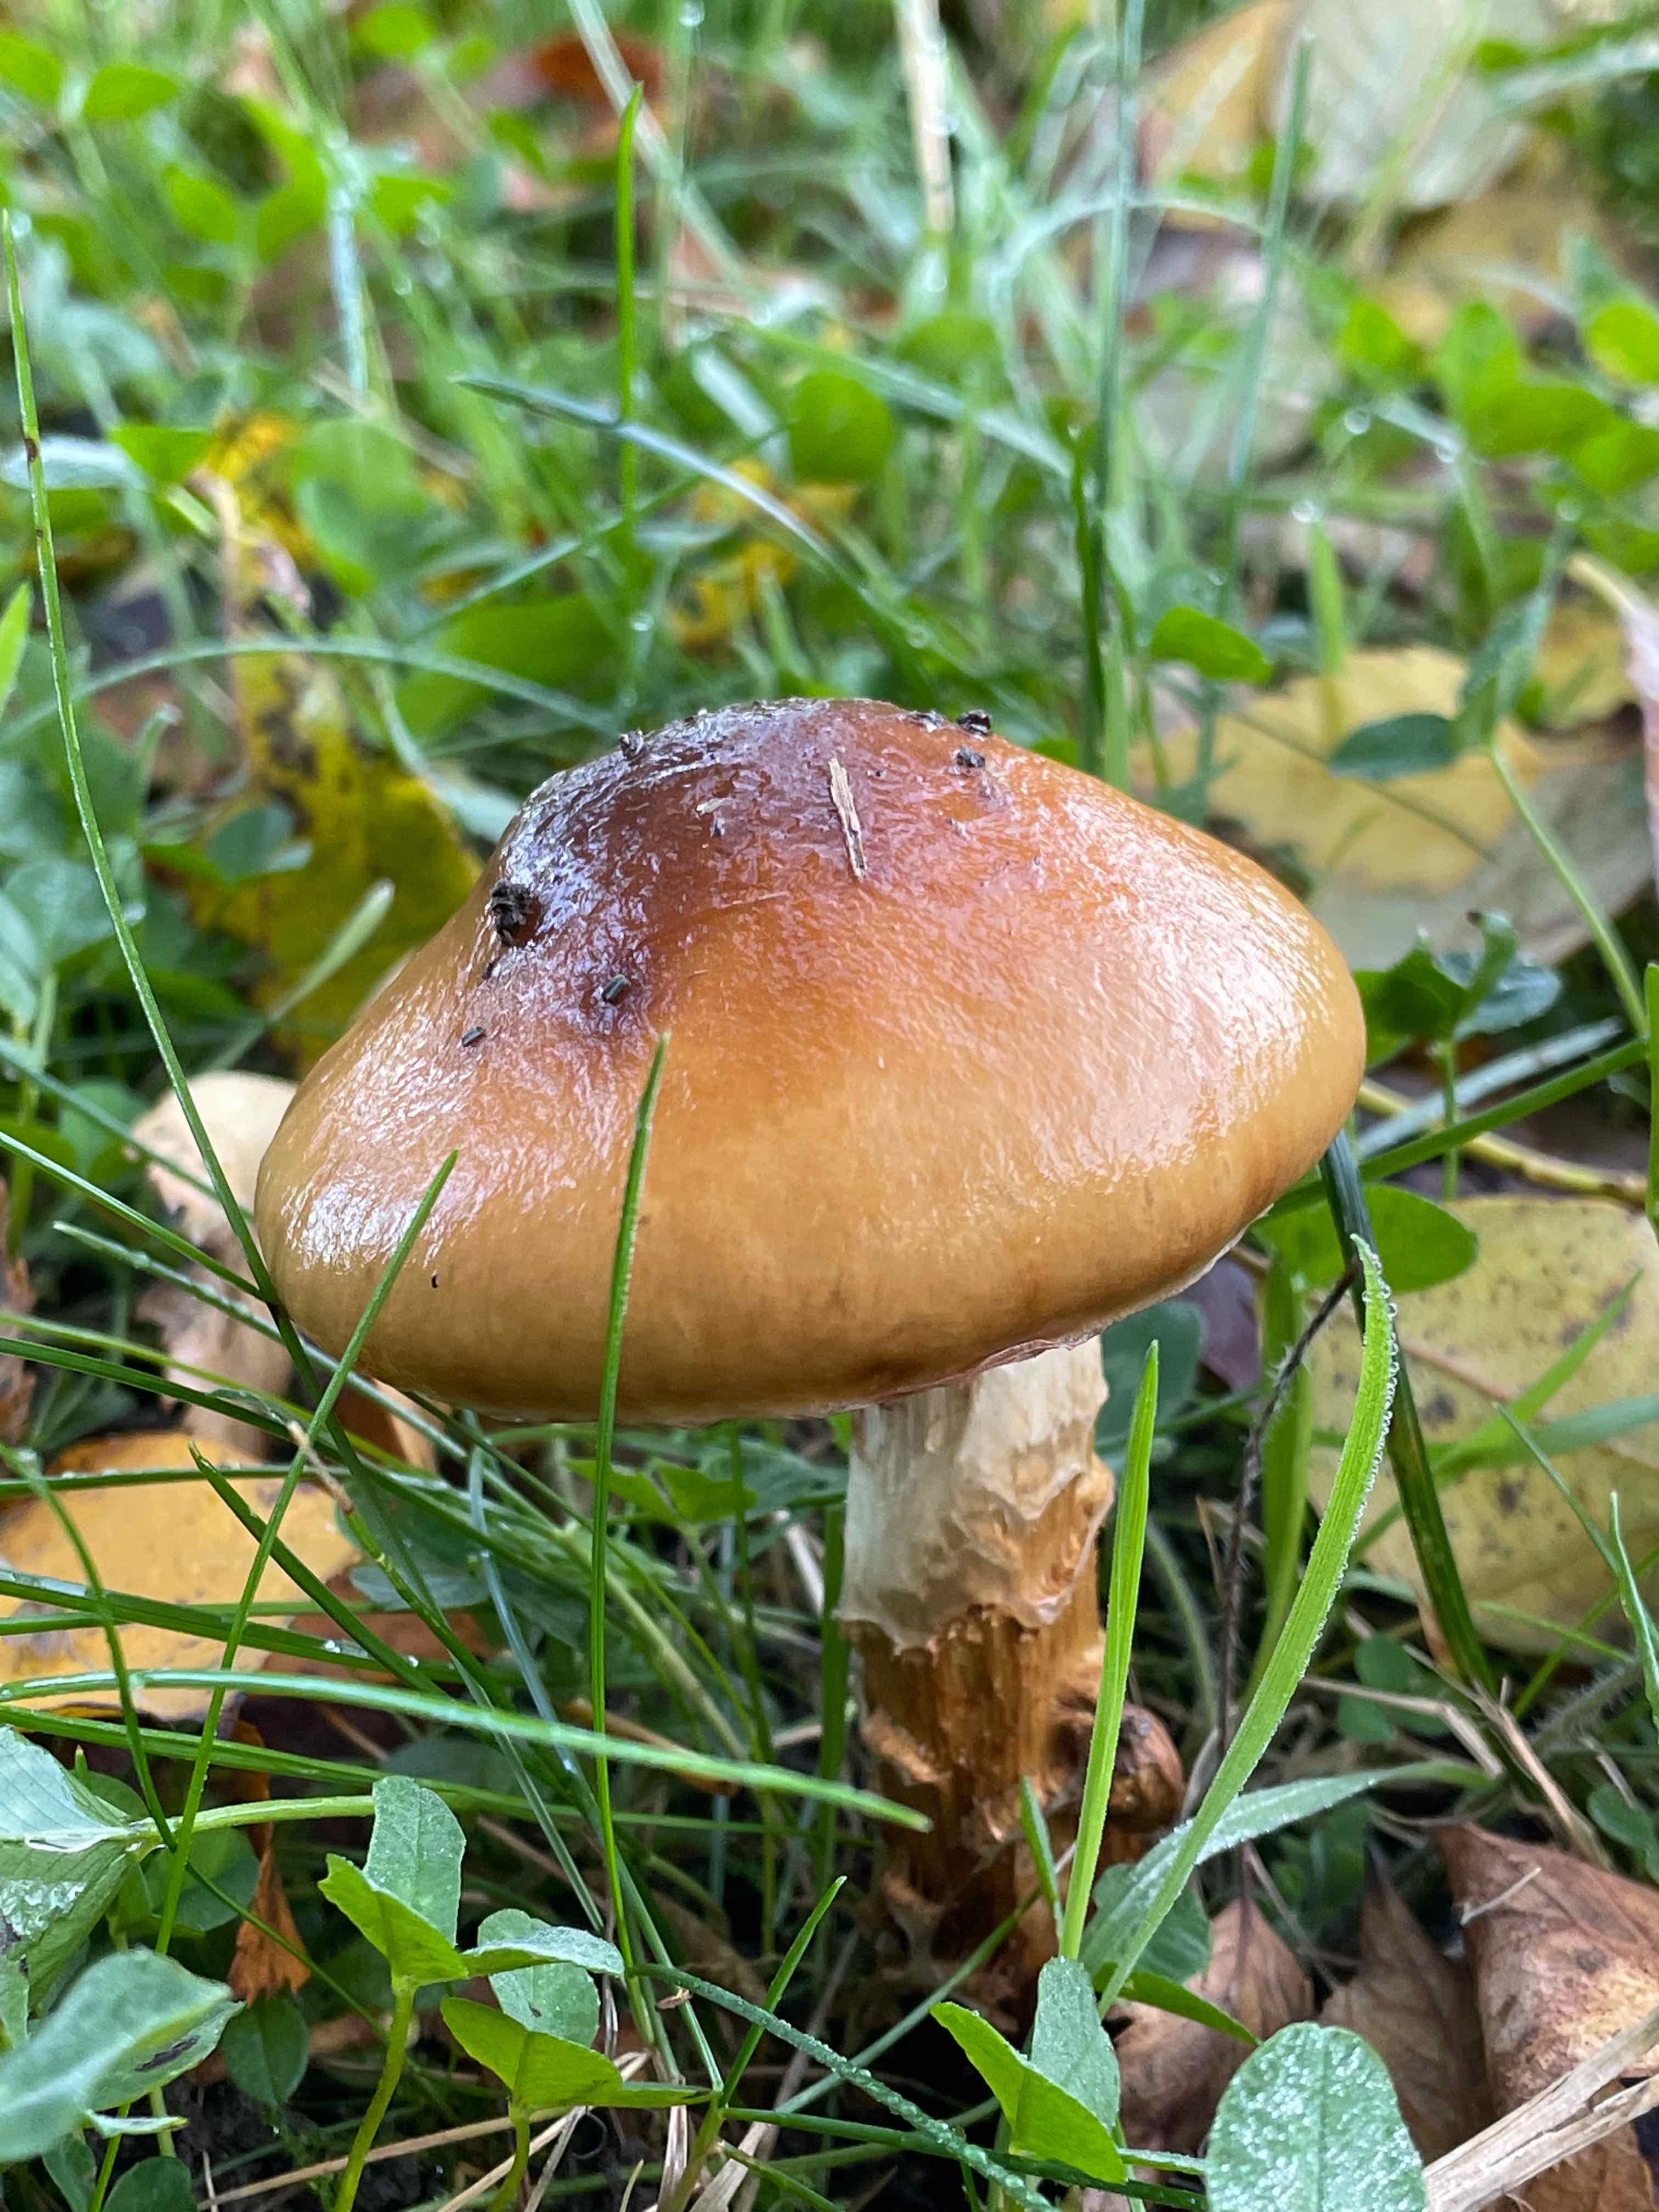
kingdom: Fungi
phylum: Basidiomycota
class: Agaricomycetes
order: Agaricales
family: Cortinariaceae
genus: Cortinarius
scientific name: Cortinarius trivialis
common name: brunslimet slørhat
